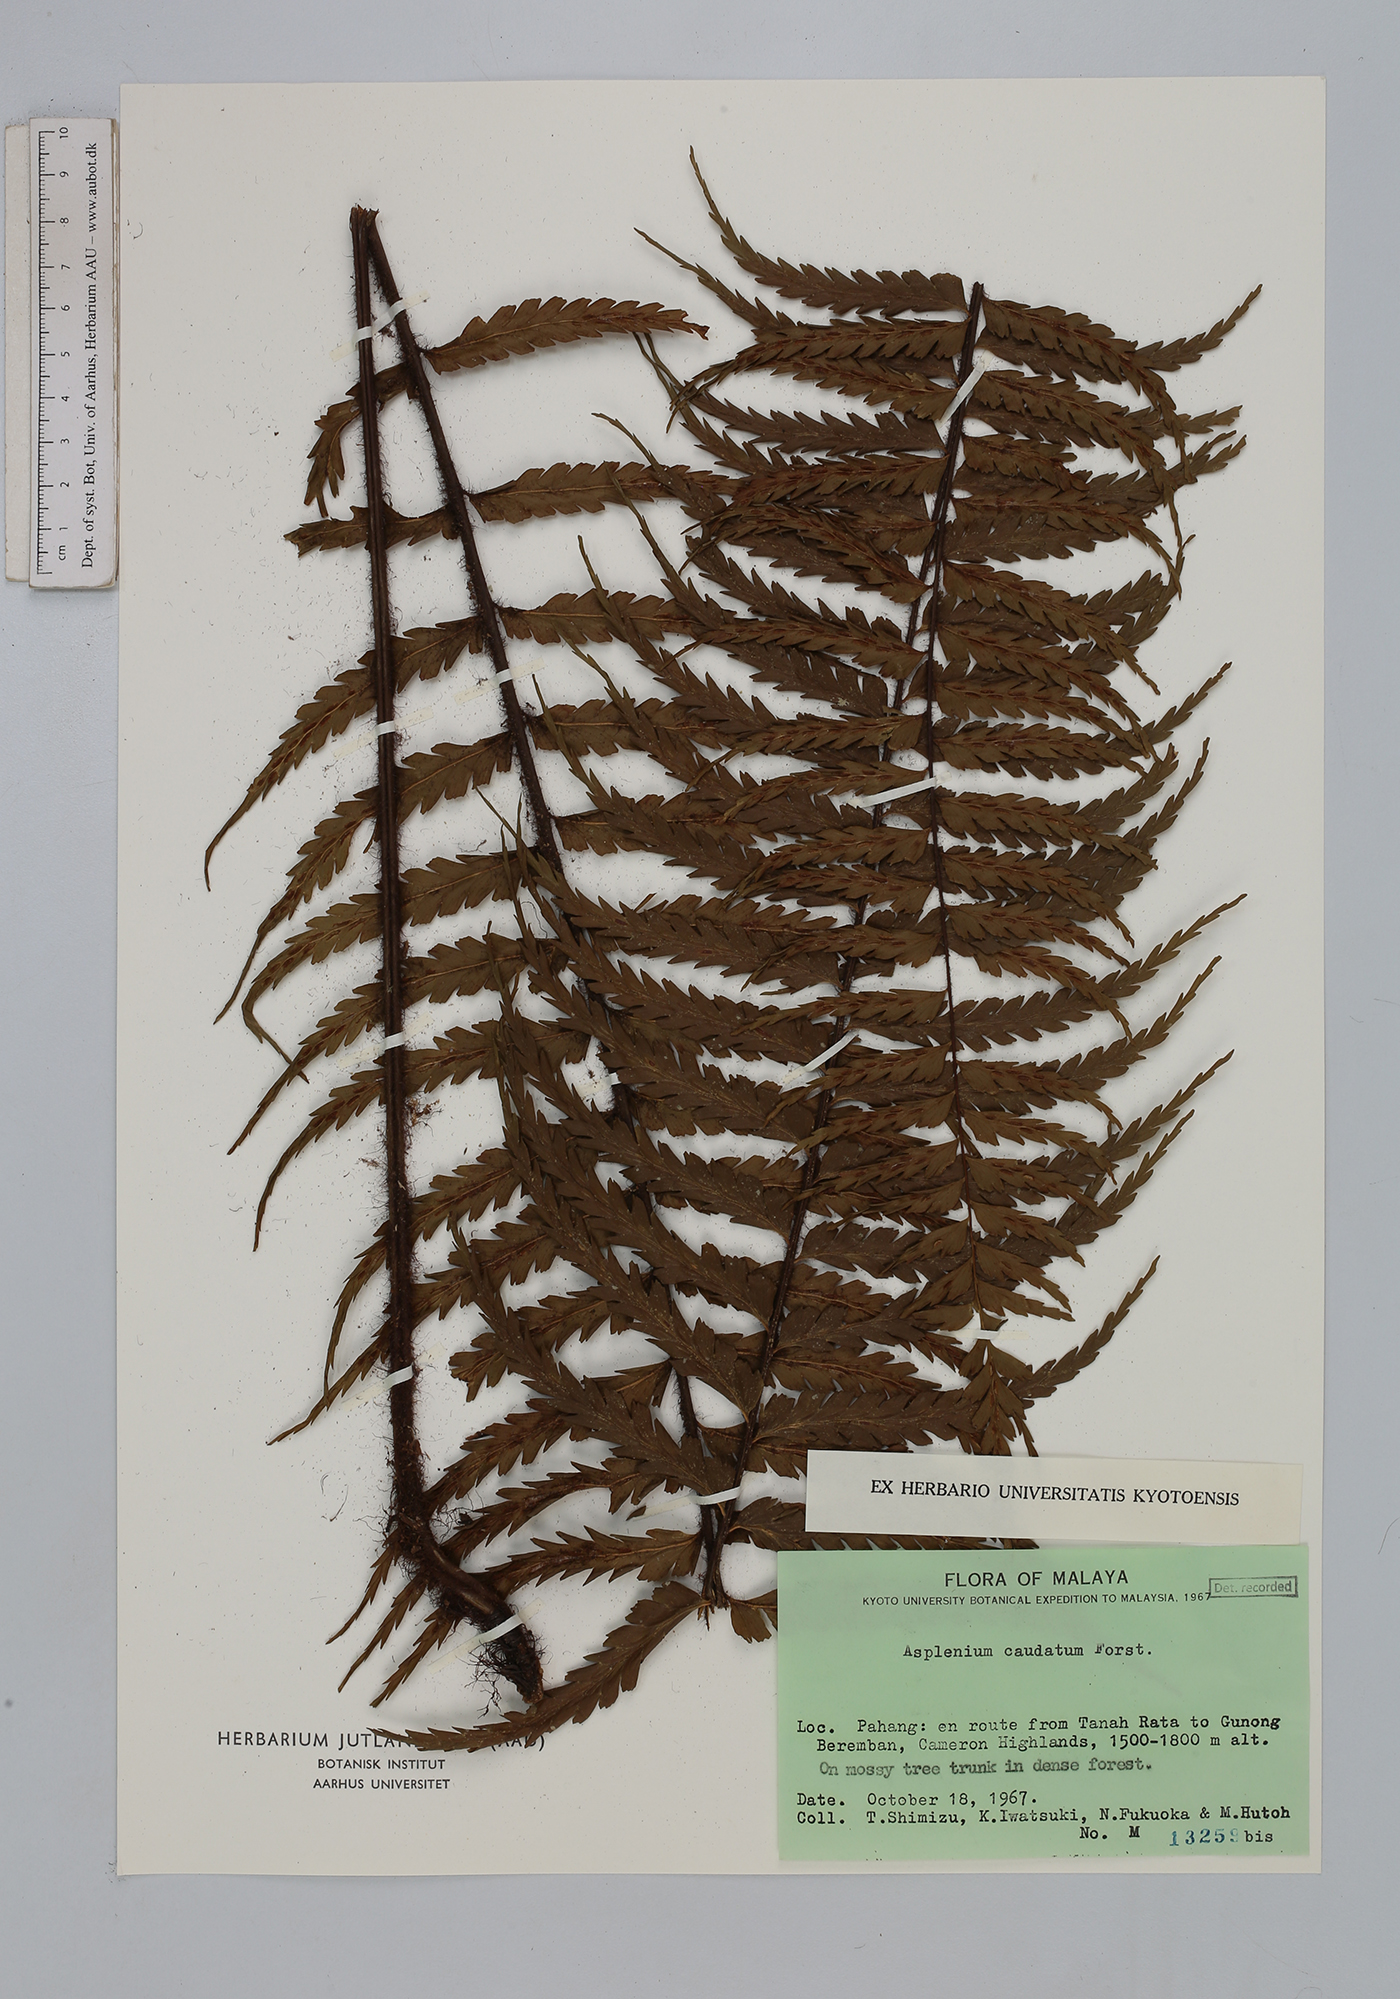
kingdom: Plantae
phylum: Tracheophyta
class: Polypodiopsida
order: Polypodiales
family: Aspleniaceae
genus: Asplenium
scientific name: Asplenium caudatum
